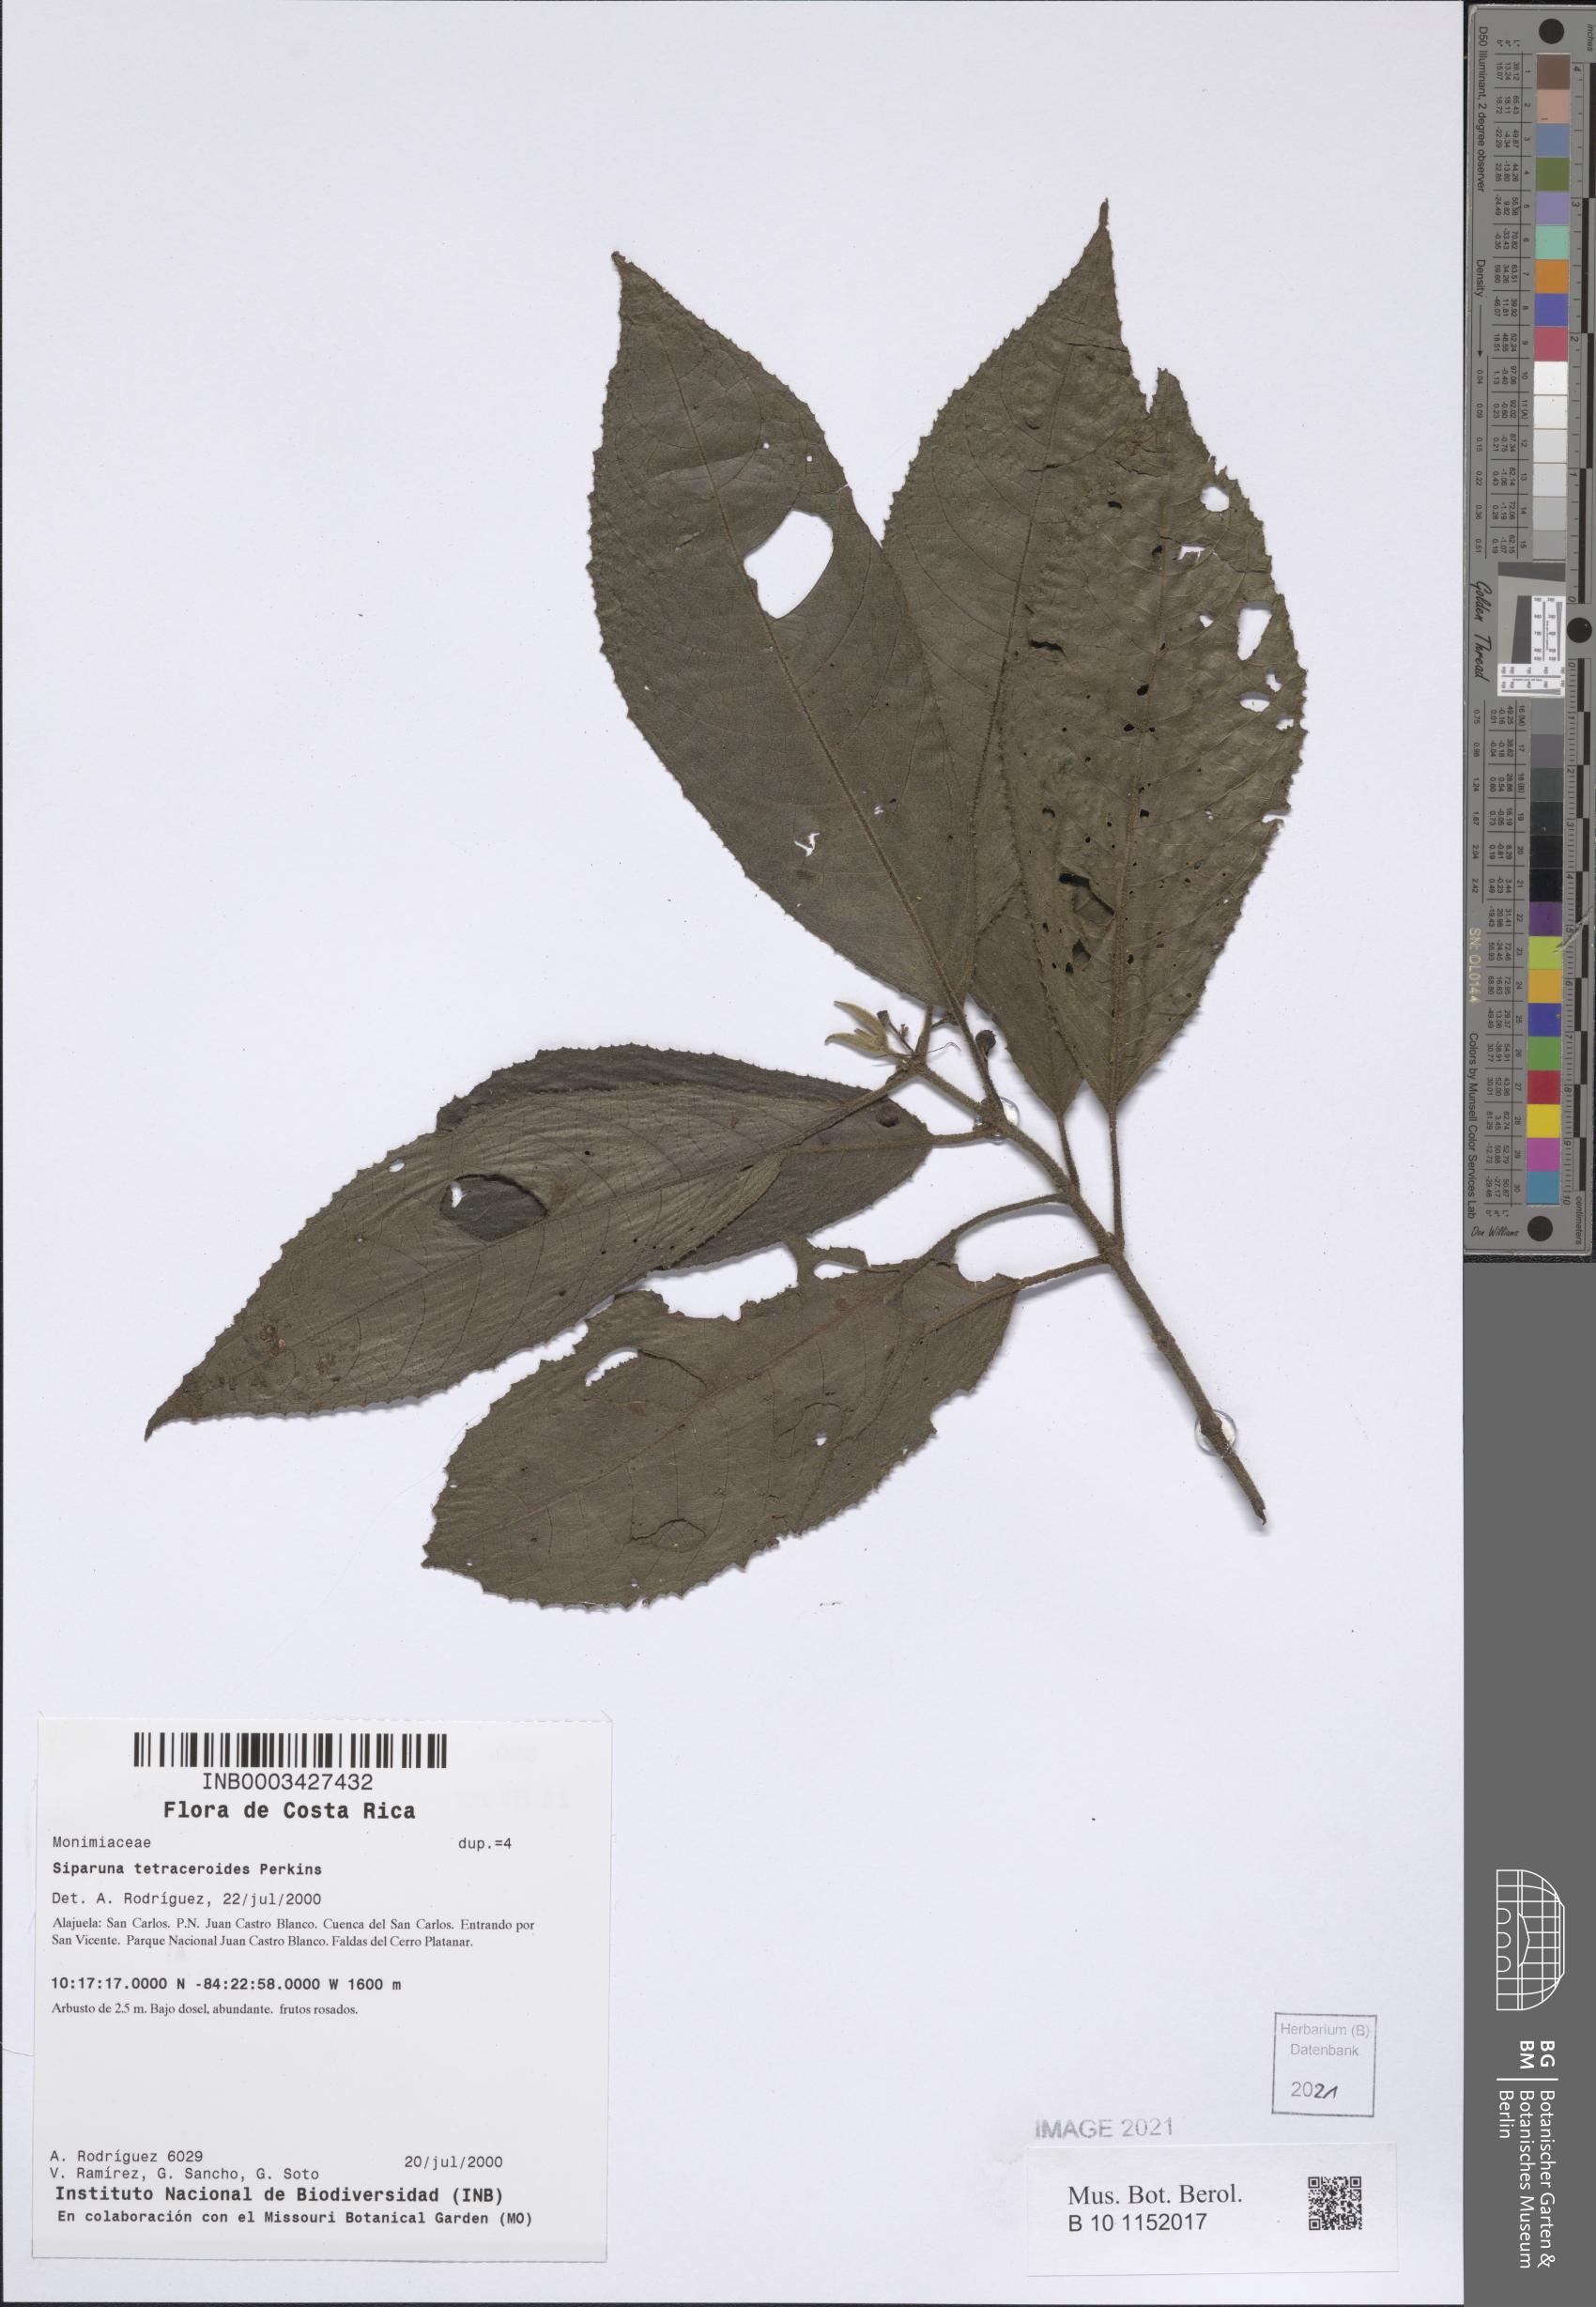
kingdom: Plantae
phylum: Tracheophyta
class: Magnoliopsida
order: Laurales
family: Siparunaceae
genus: Siparuna
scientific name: Siparuna grandiflora
